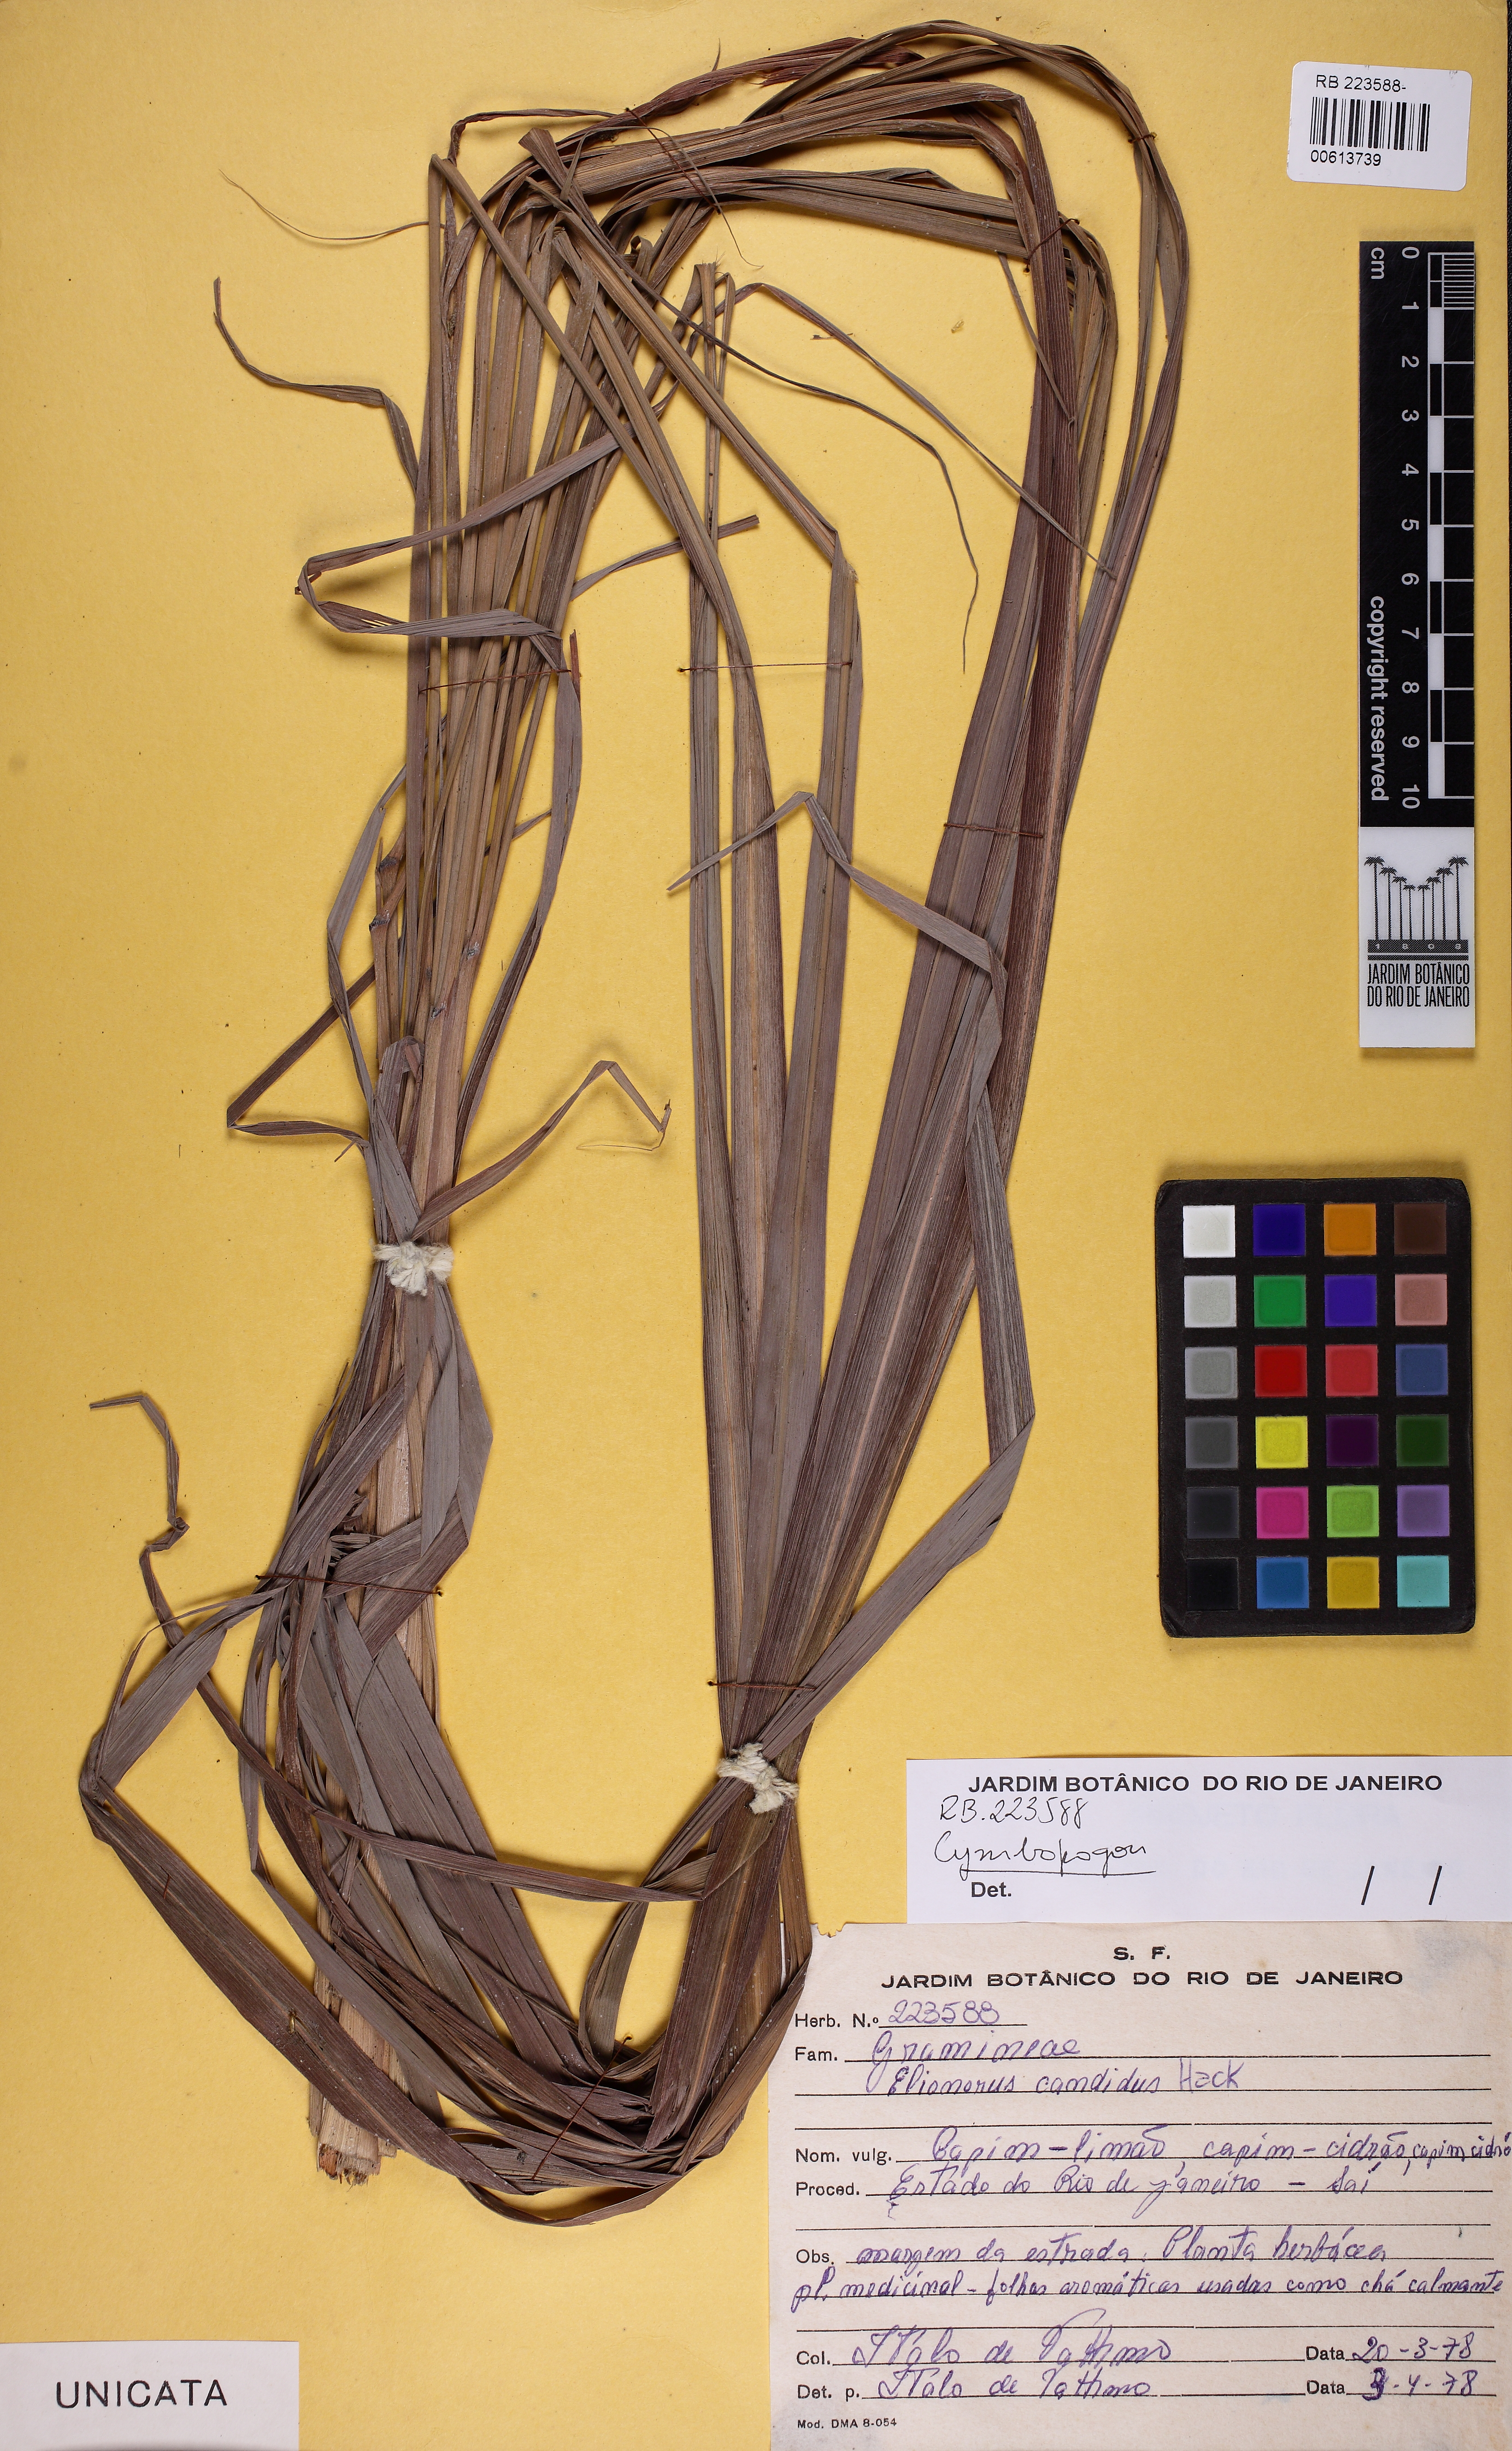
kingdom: Plantae
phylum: Tracheophyta
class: Liliopsida
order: Poales
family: Poaceae
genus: Cymbopogon
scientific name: Cymbopogon
